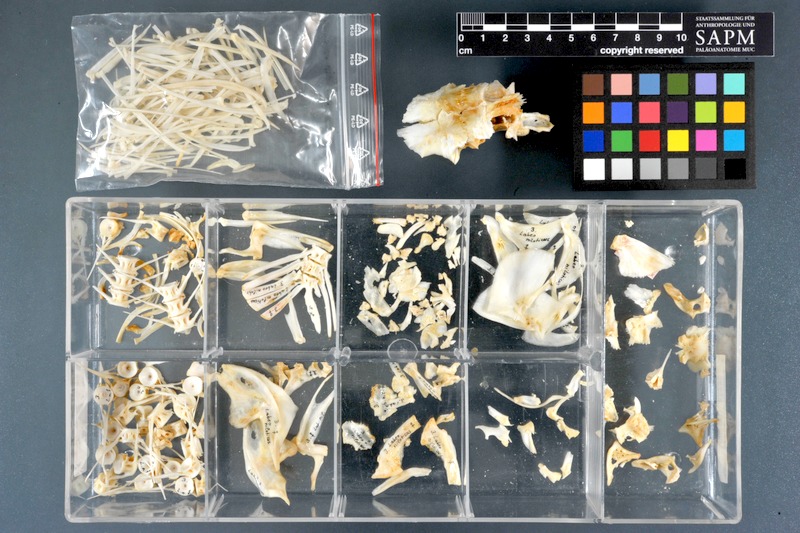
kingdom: Animalia
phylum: Chordata
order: Cypriniformes
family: Cyprinidae
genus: Labeo
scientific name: Labeo niloticus
